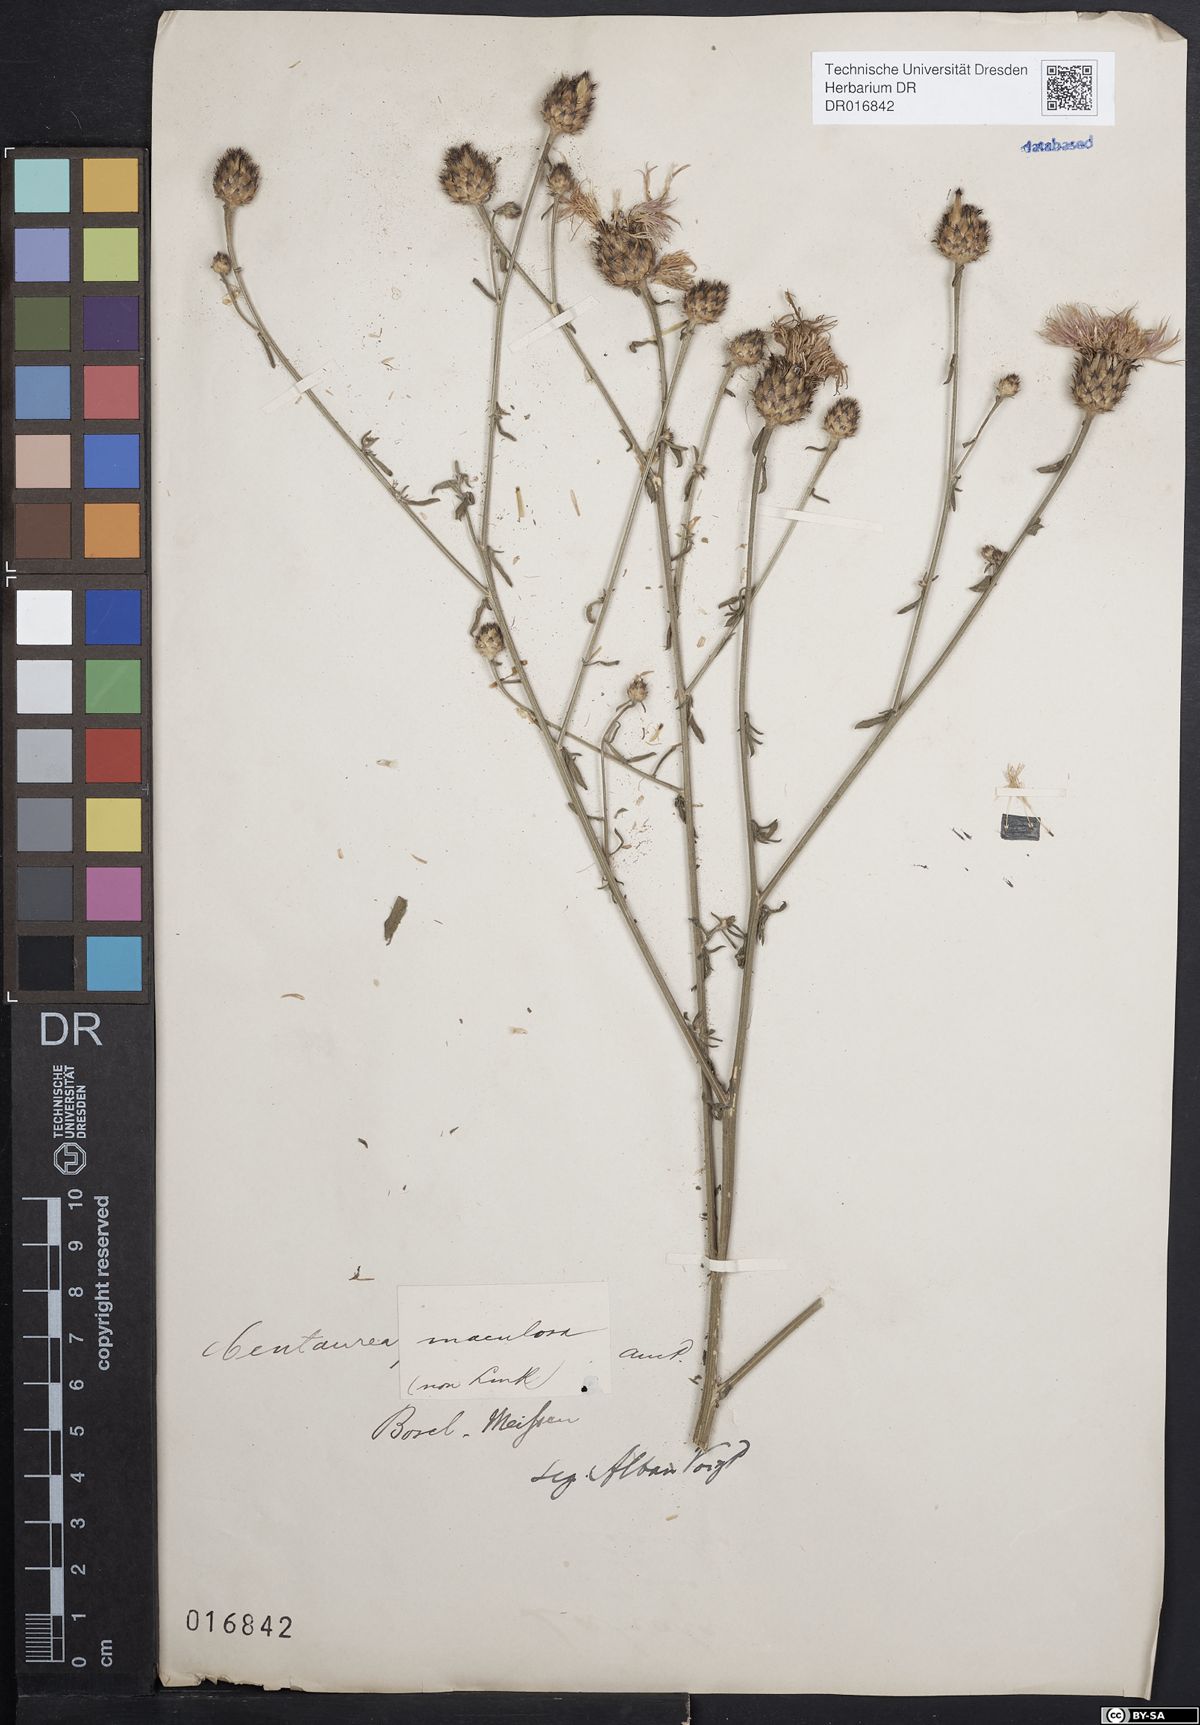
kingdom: Plantae
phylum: Tracheophyta
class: Magnoliopsida
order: Asterales
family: Asteraceae
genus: Centaurea
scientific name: Centaurea stoebe
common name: Spotted knapweed
